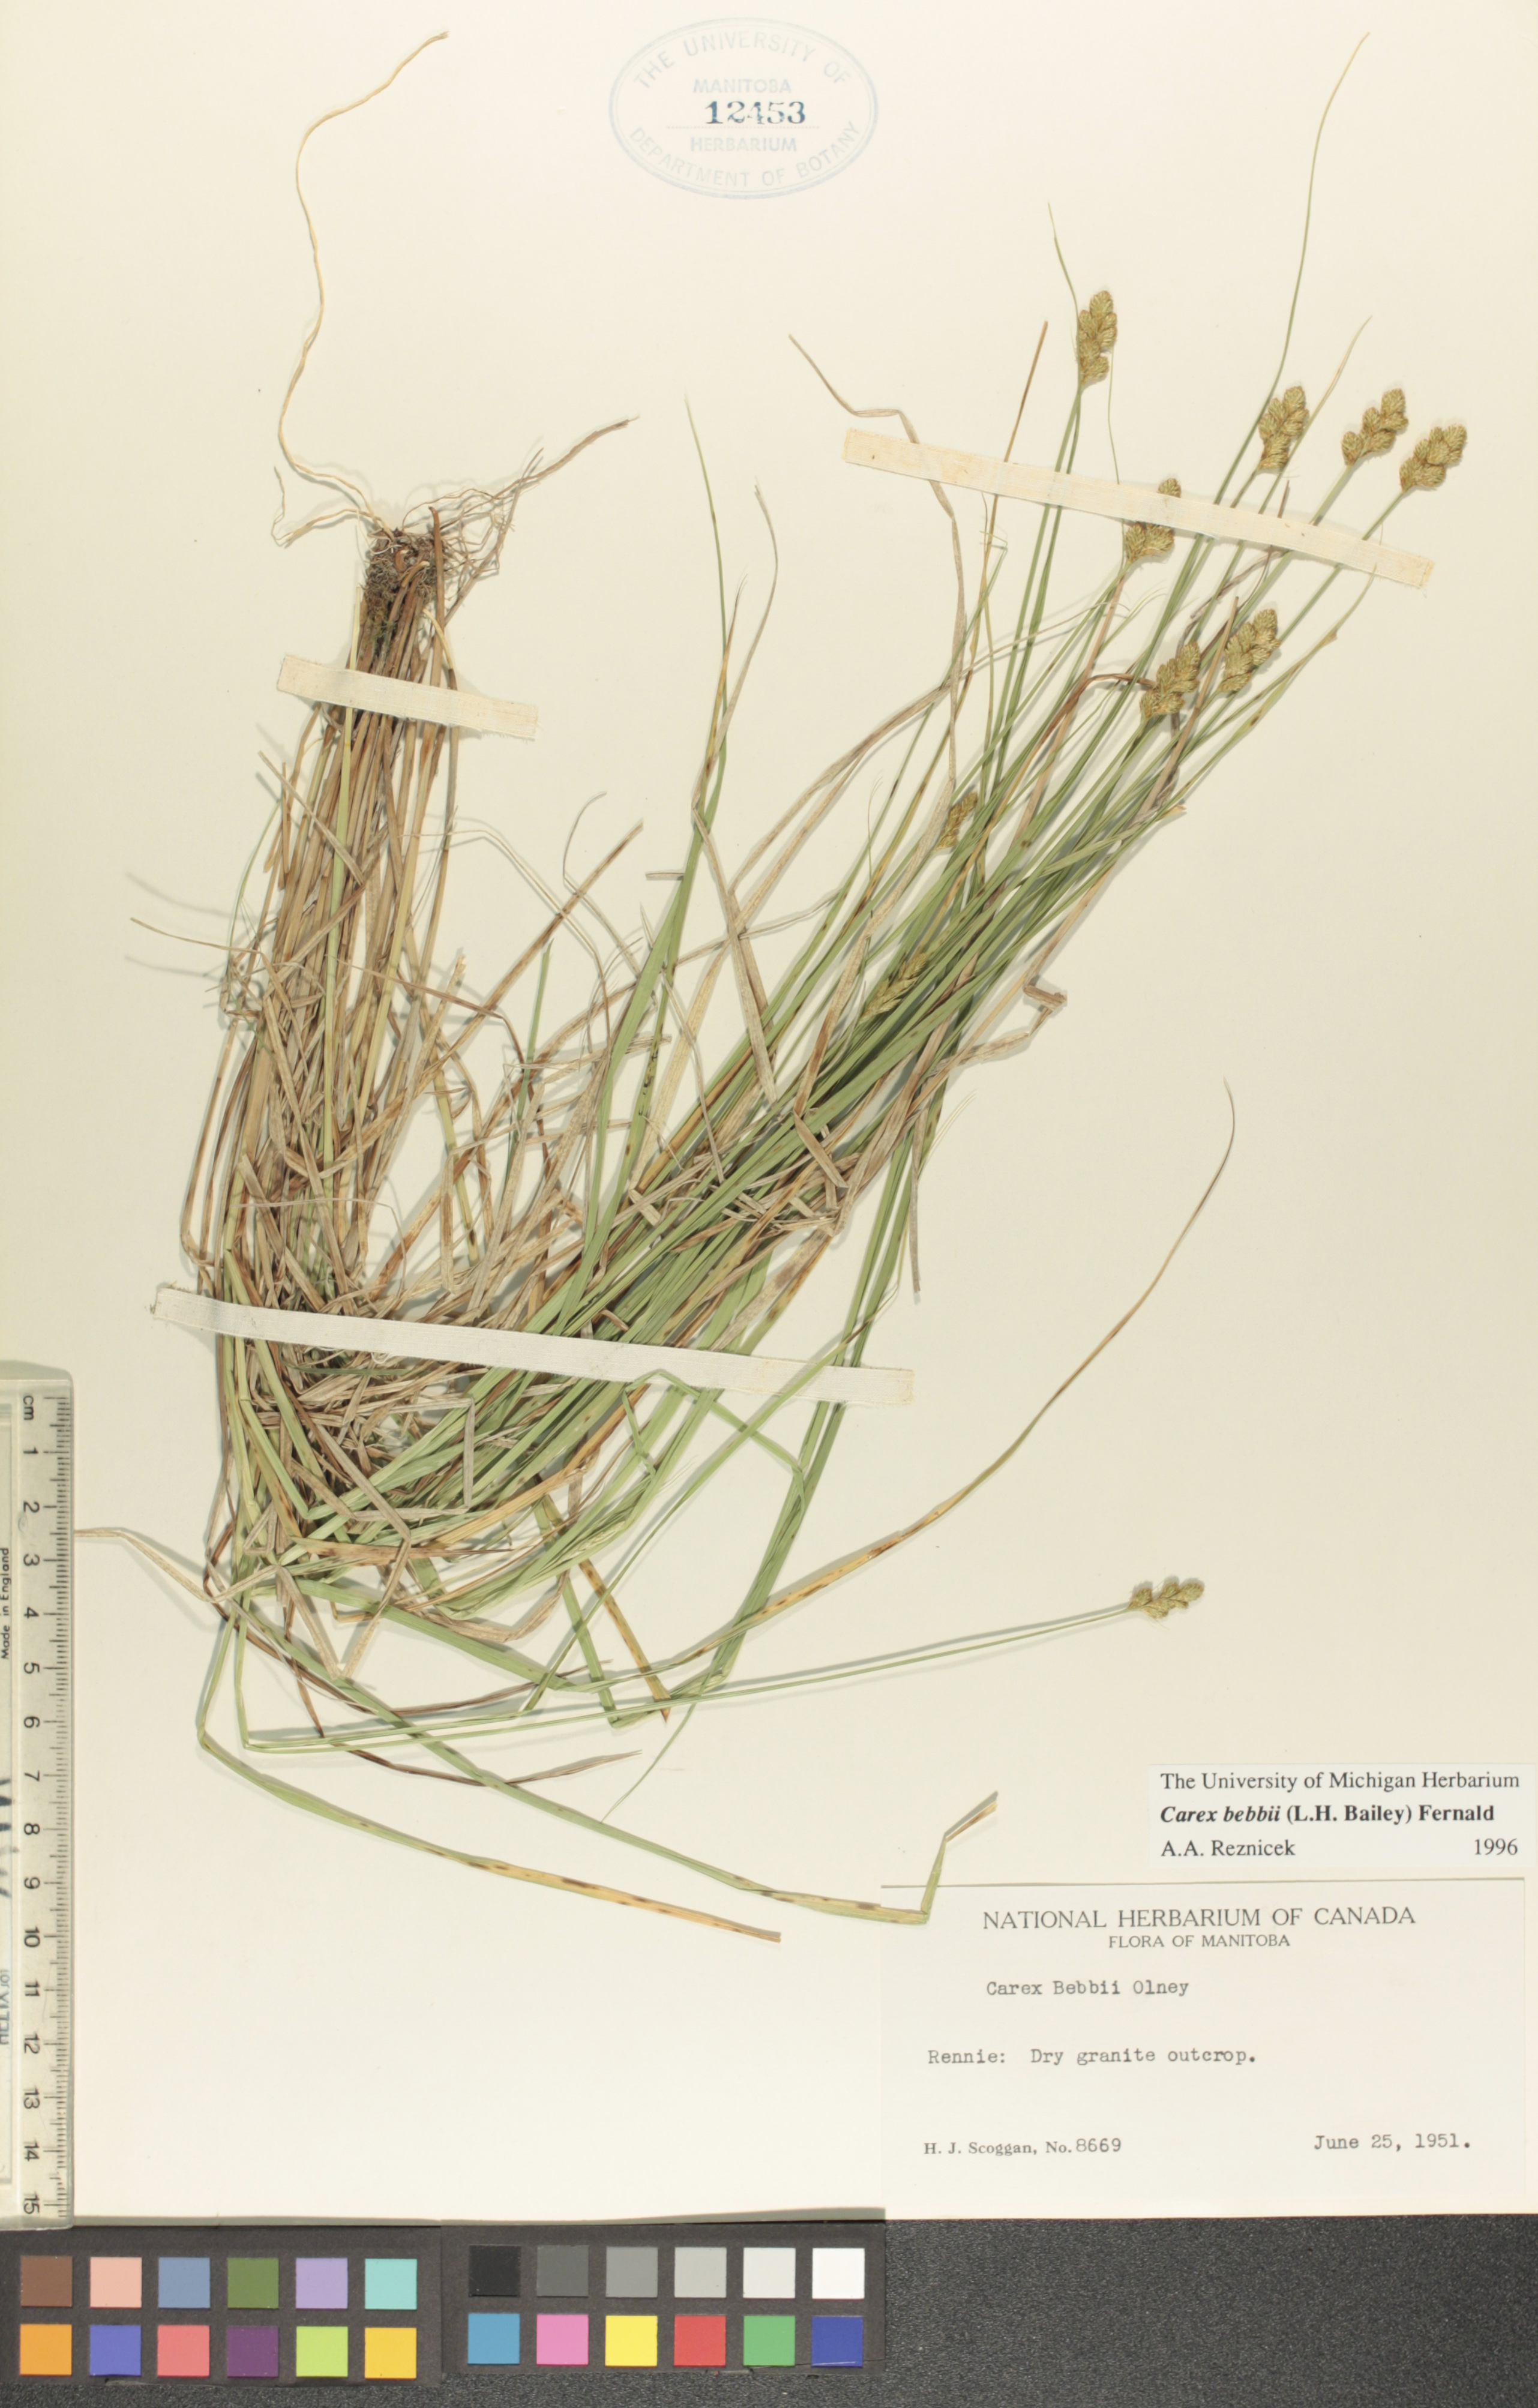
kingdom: Plantae
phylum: Tracheophyta
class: Liliopsida
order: Poales
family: Cyperaceae
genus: Carex
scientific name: Carex bebbii
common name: Bebb's sedge
